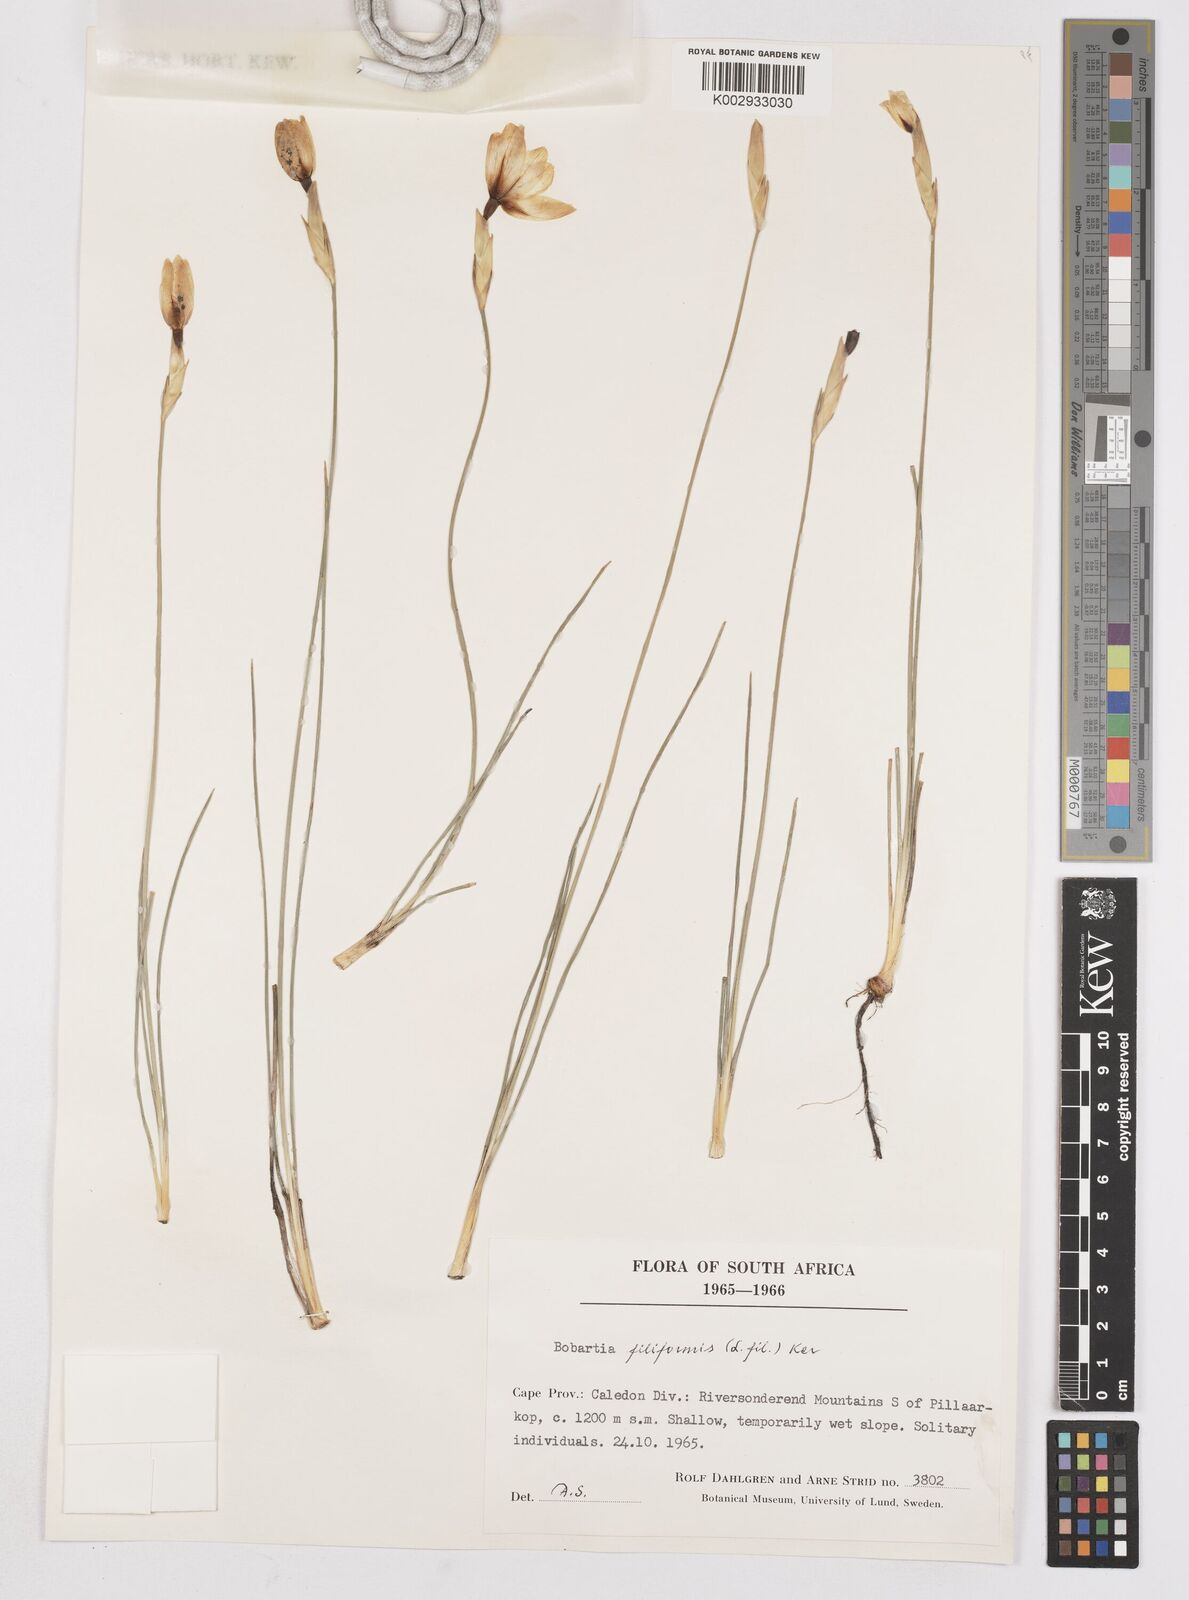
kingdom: Plantae
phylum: Tracheophyta
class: Liliopsida
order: Asparagales
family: Iridaceae
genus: Bobartia
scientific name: Bobartia filiformis
